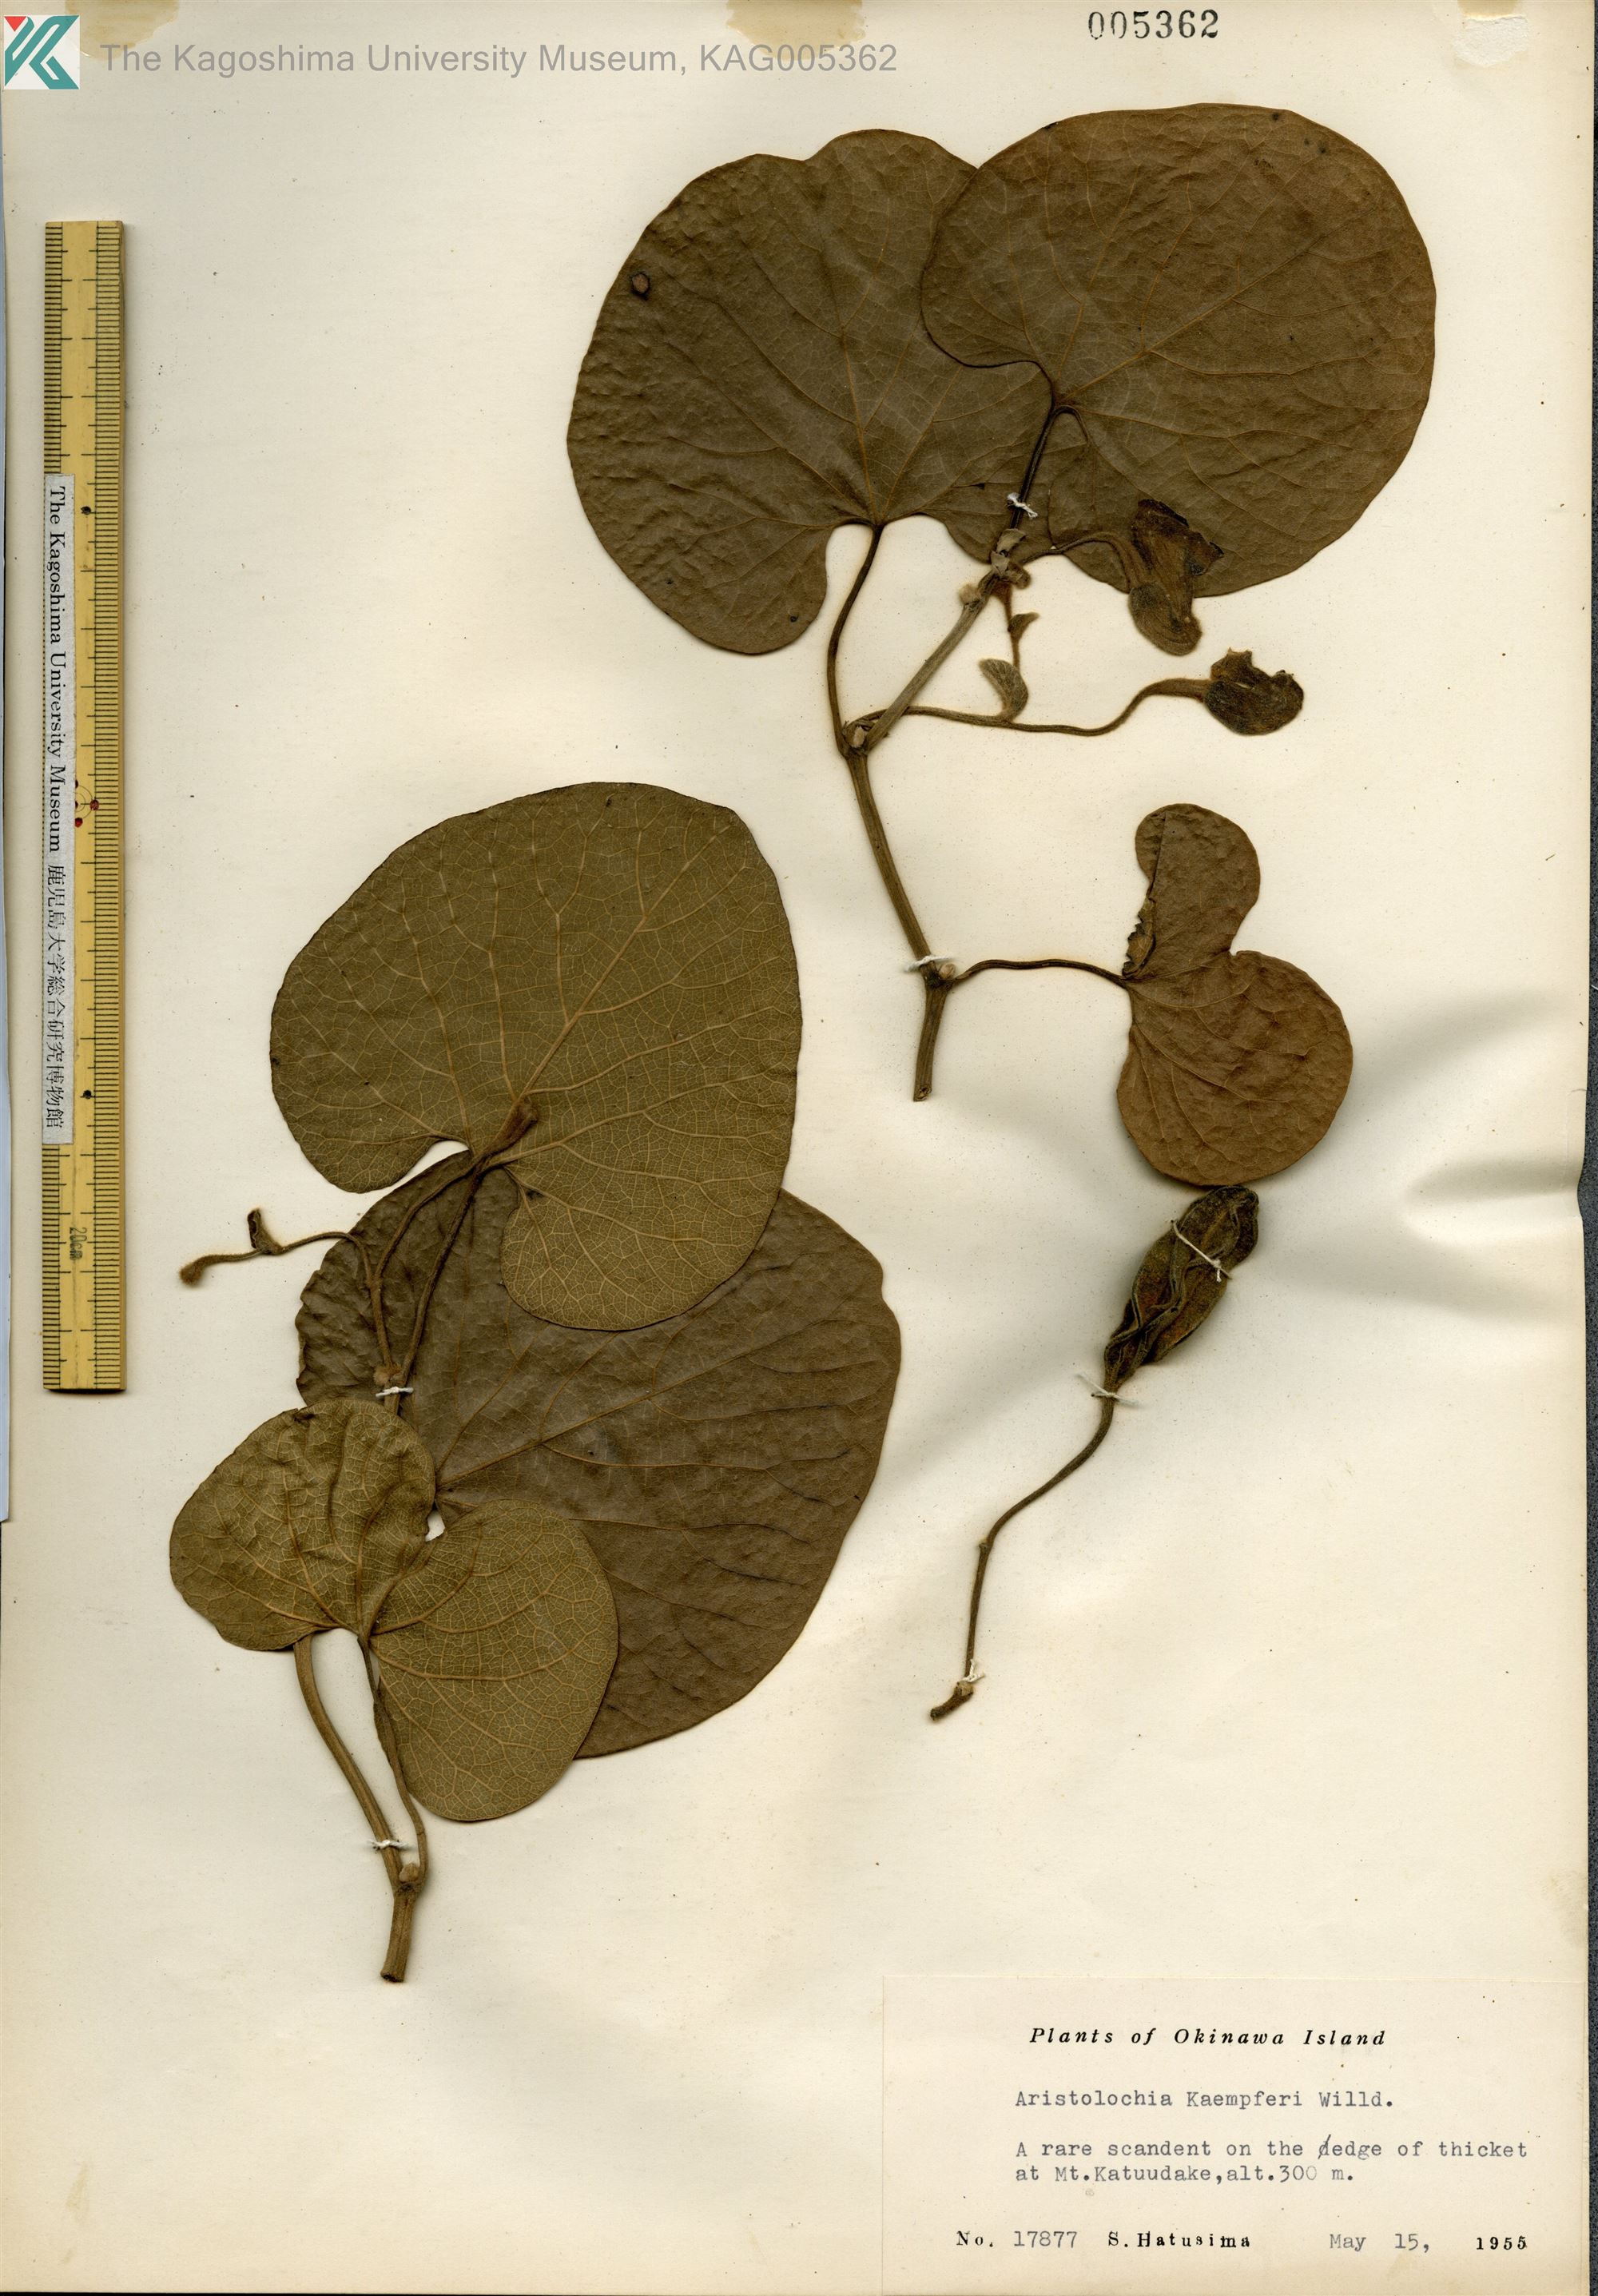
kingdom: Plantae
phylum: Tracheophyta
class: Magnoliopsida
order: Piperales
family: Aristolochiaceae
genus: Isotrema
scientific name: Isotrema liukiuense
